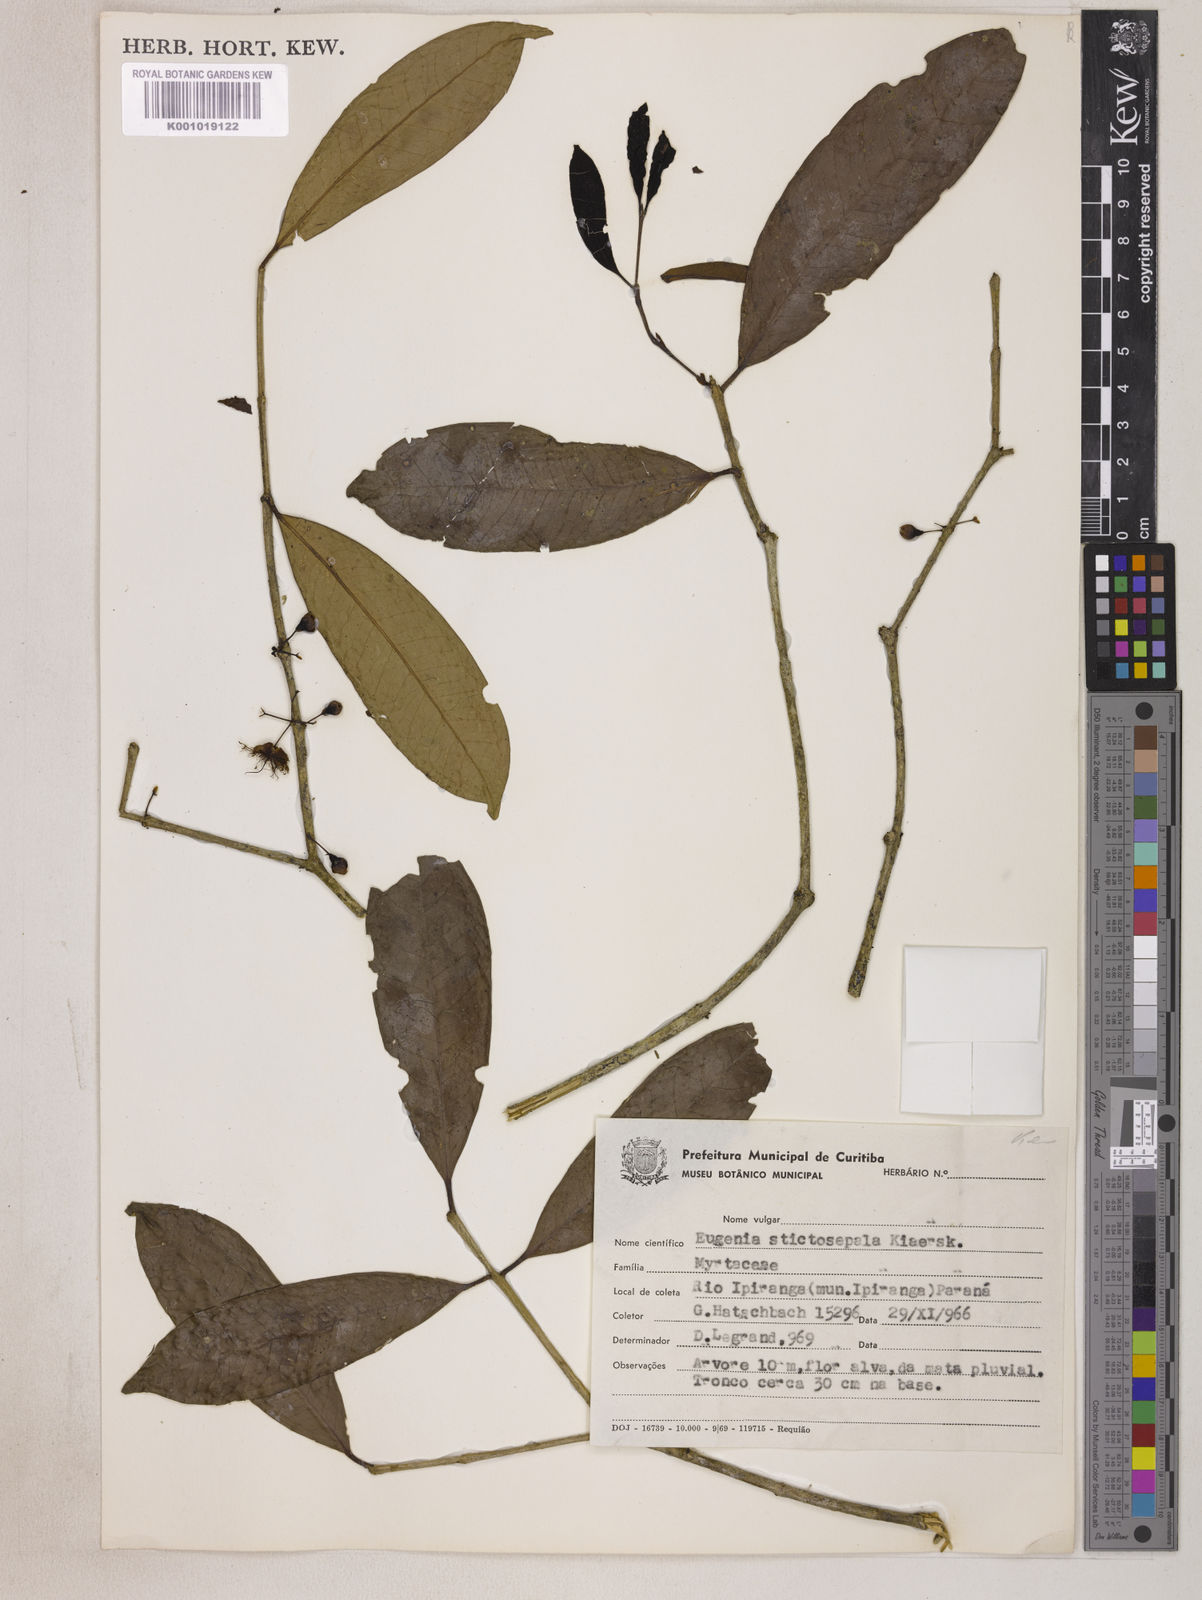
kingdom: Plantae
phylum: Tracheophyta
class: Magnoliopsida
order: Myrtales
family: Myrtaceae
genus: Eugenia
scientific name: Eugenia prasina
